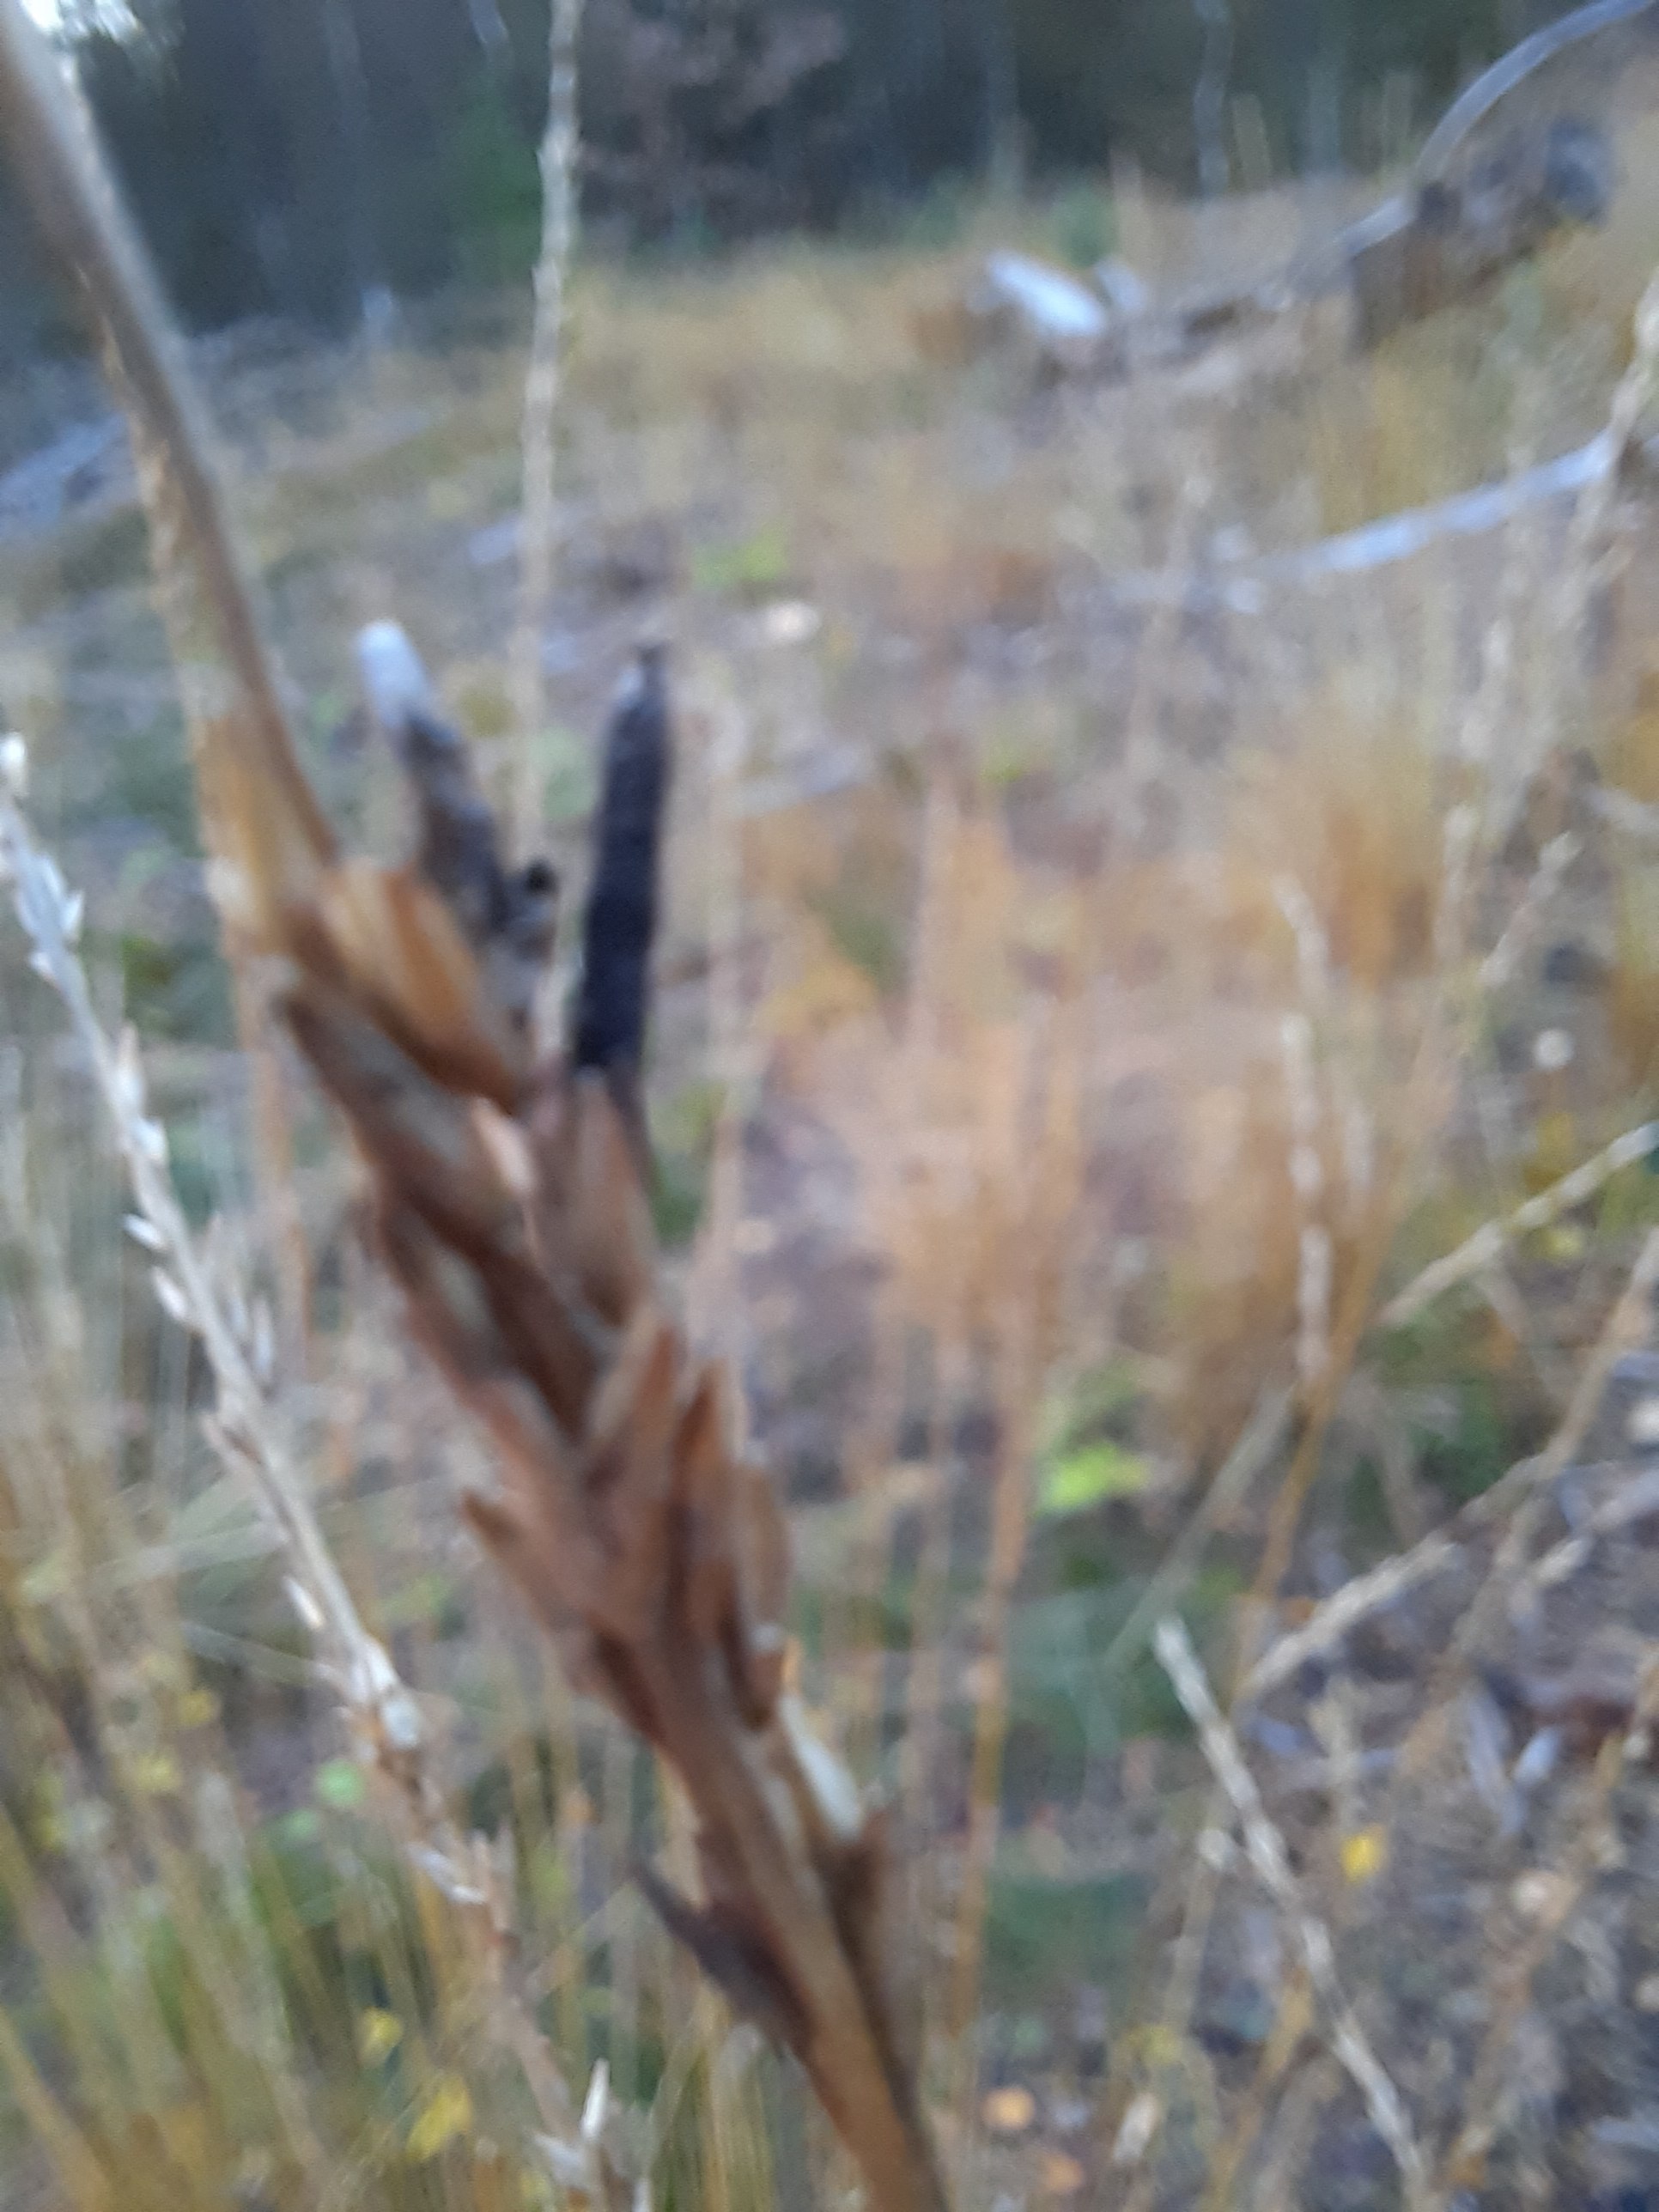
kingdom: Fungi
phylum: Ascomycota
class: Sordariomycetes
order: Hypocreales
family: Clavicipitaceae
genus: Claviceps
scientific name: Claviceps purpurea
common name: almindelig meldrøjer
